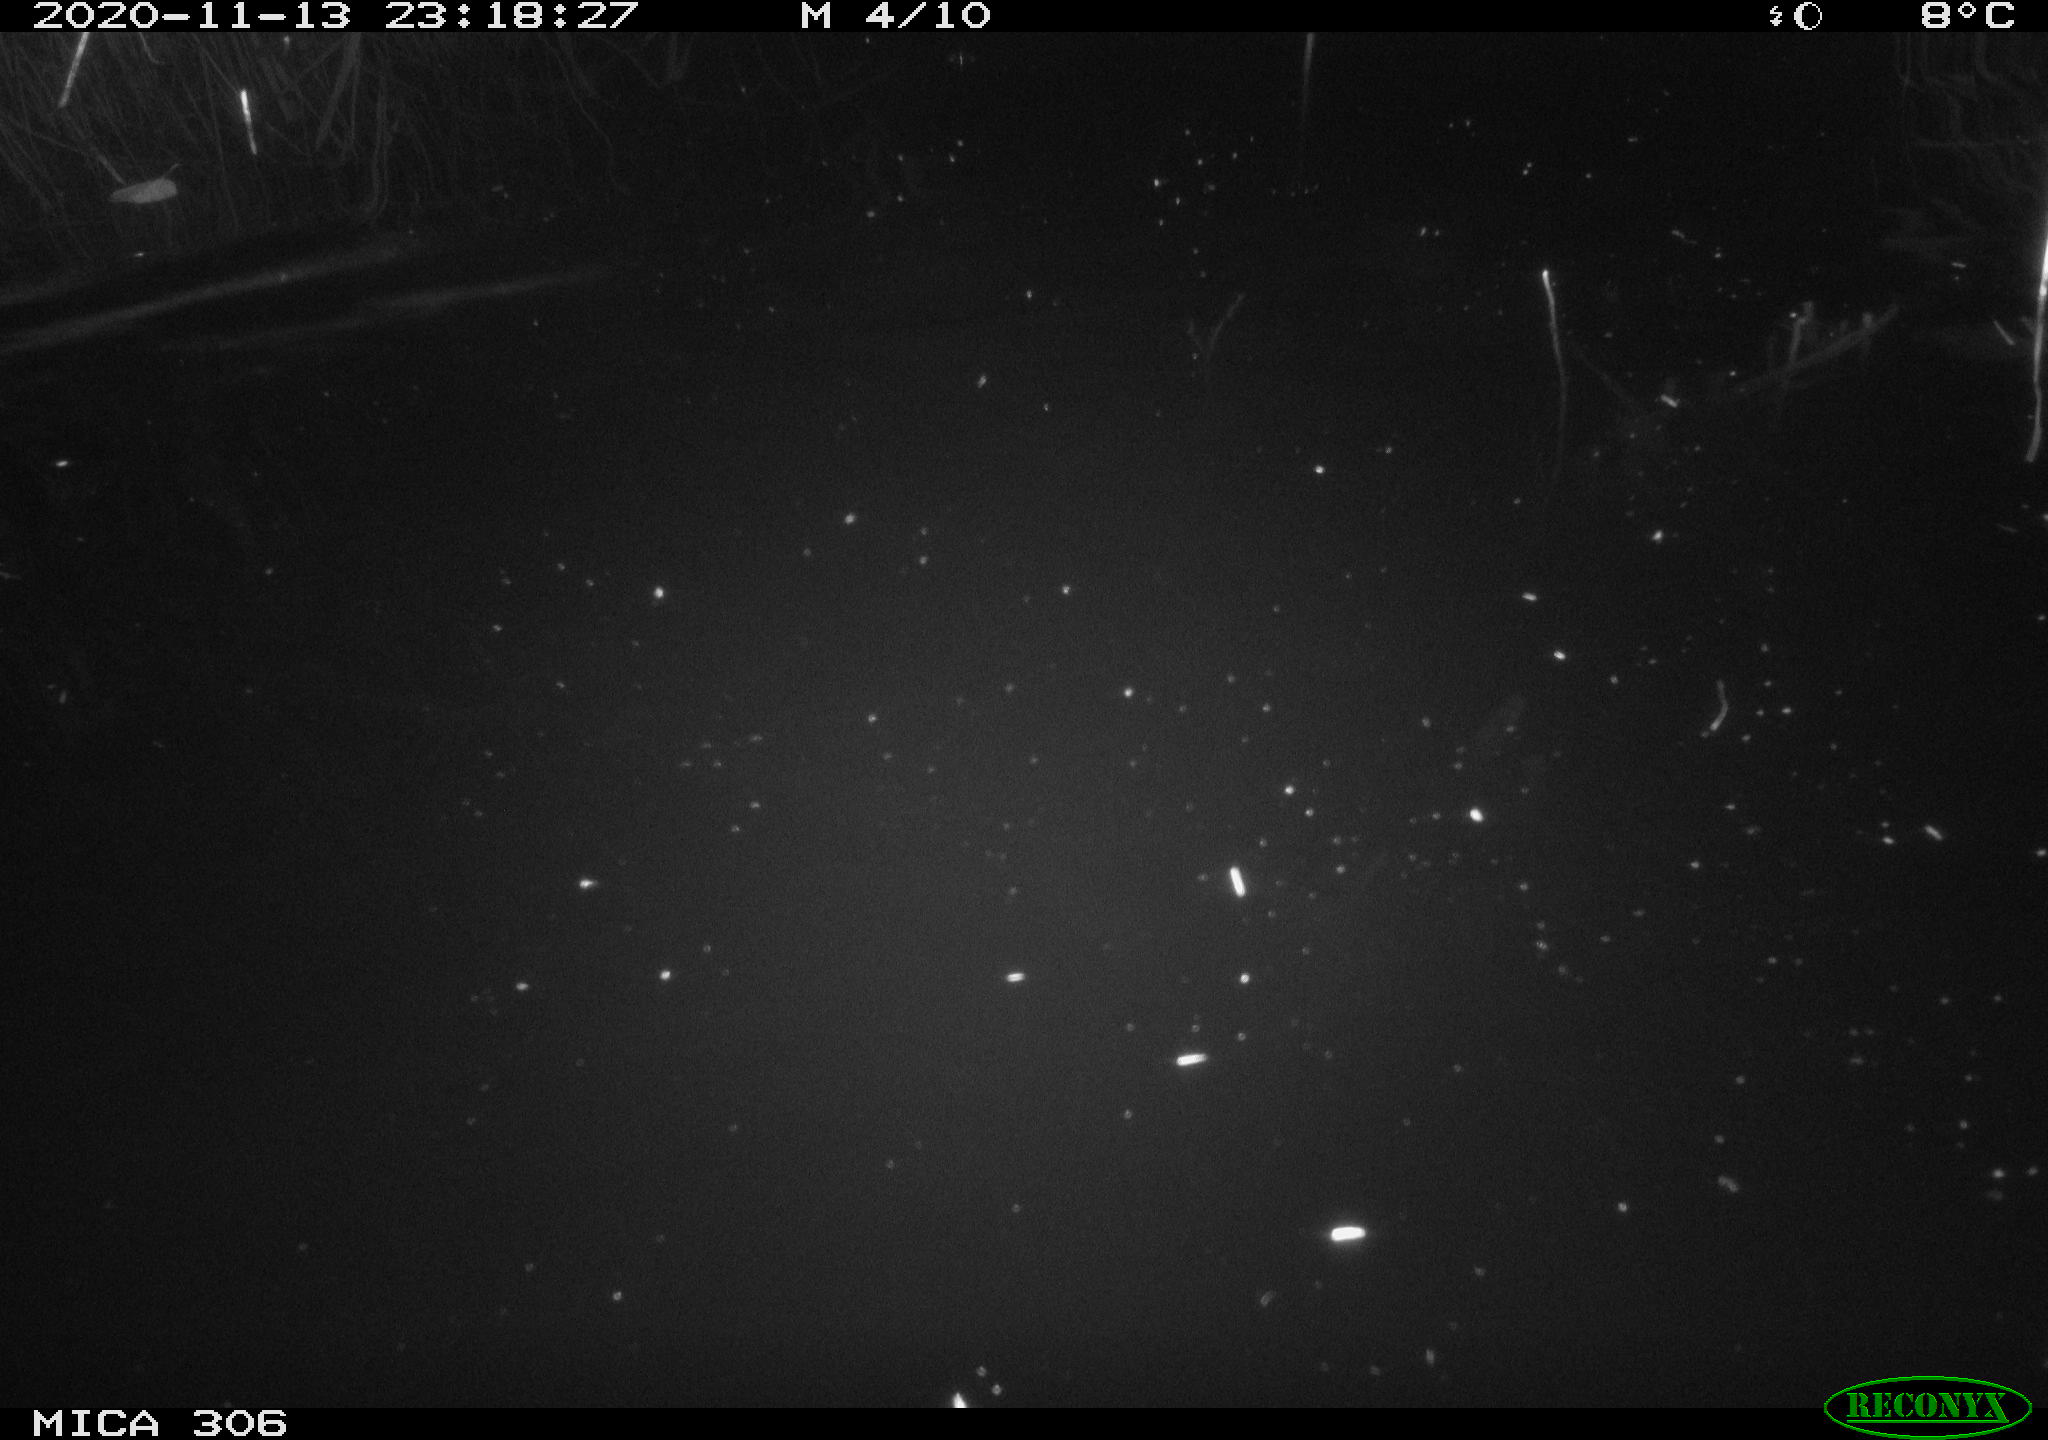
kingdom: Animalia
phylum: Chordata
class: Mammalia
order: Rodentia
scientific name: Rodentia
